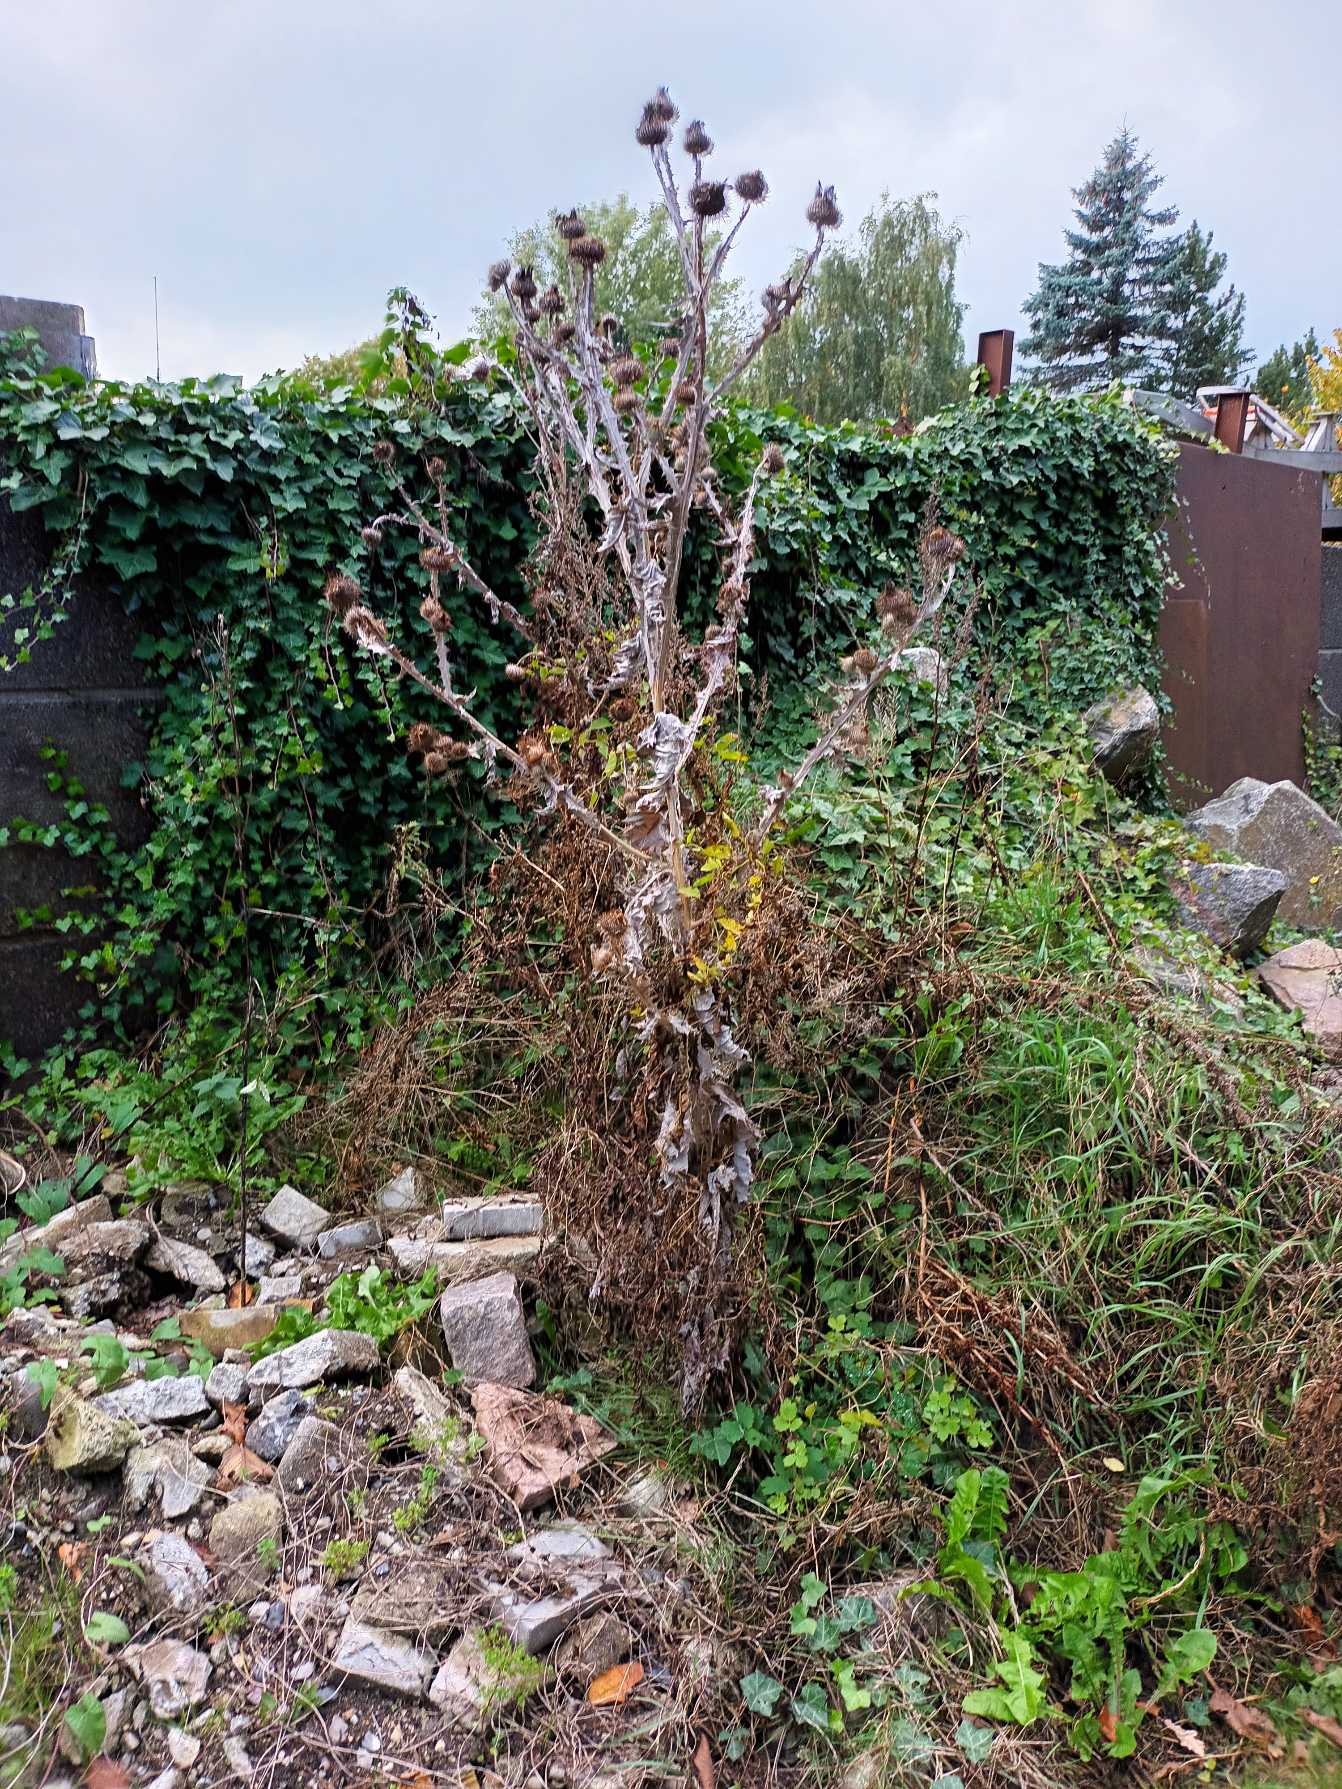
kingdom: Plantae
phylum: Tracheophyta
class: Magnoliopsida
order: Asterales
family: Asteraceae
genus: Onopordum
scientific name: Onopordum acanthium
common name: Æselfoder
